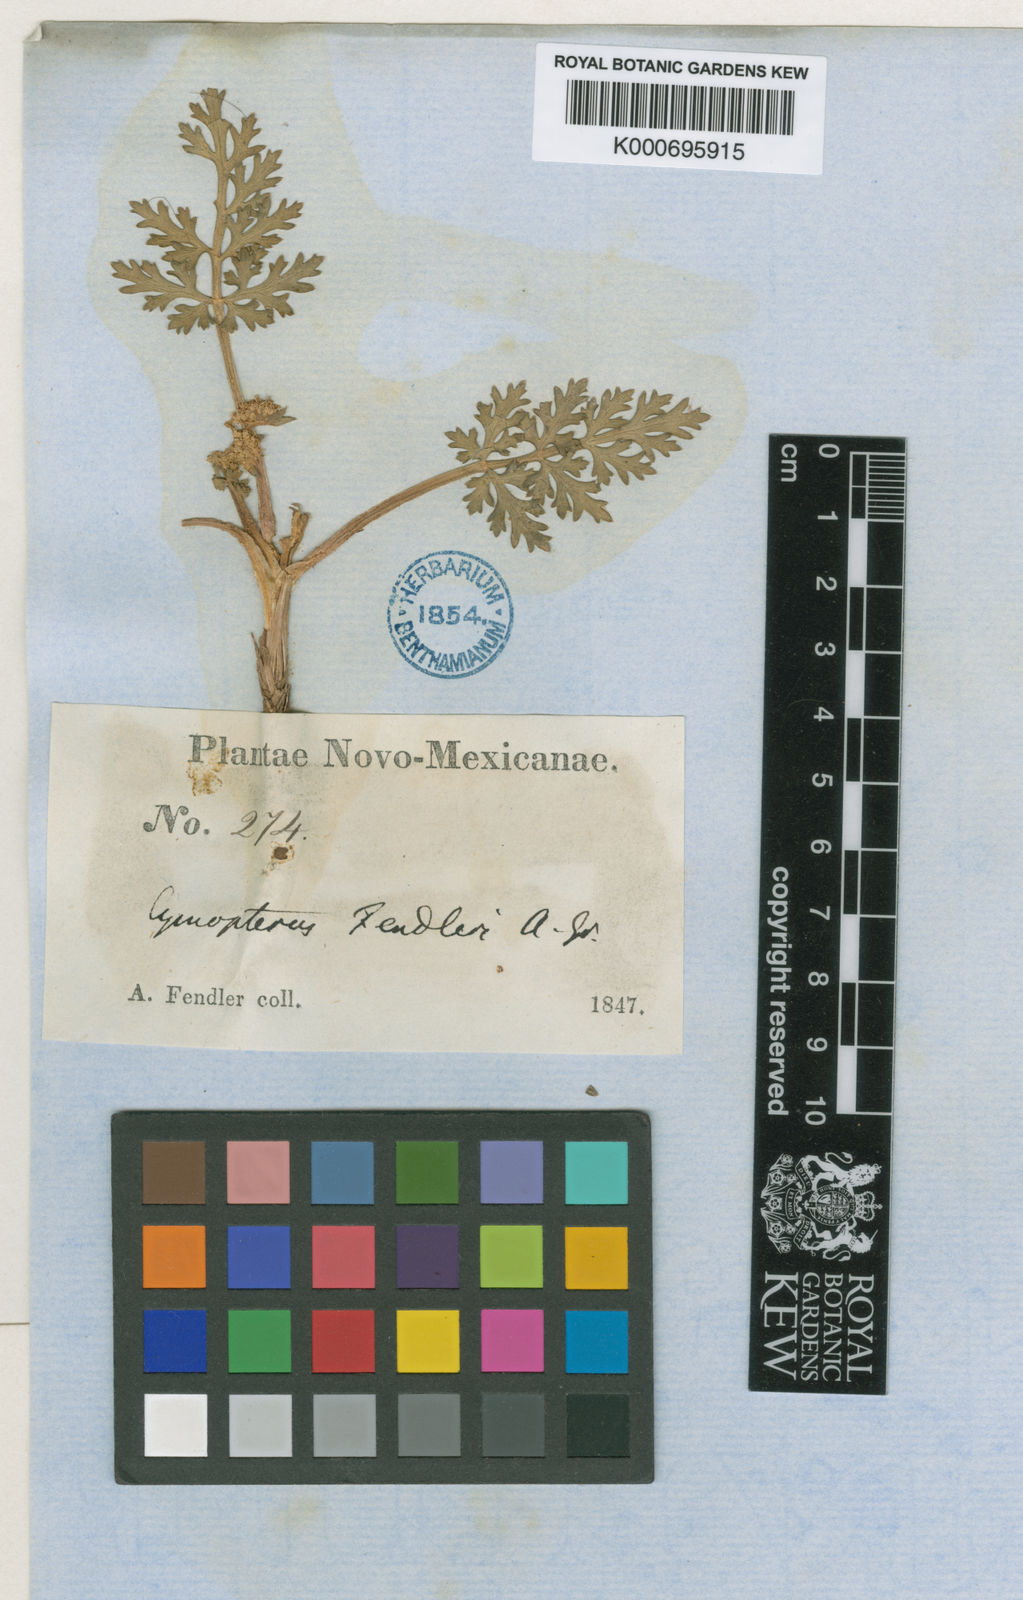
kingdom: Plantae
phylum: Tracheophyta
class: Magnoliopsida
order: Apiales
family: Apiaceae
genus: Cymopterus
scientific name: Cymopterus glomeratus
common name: Plains spring parsley
